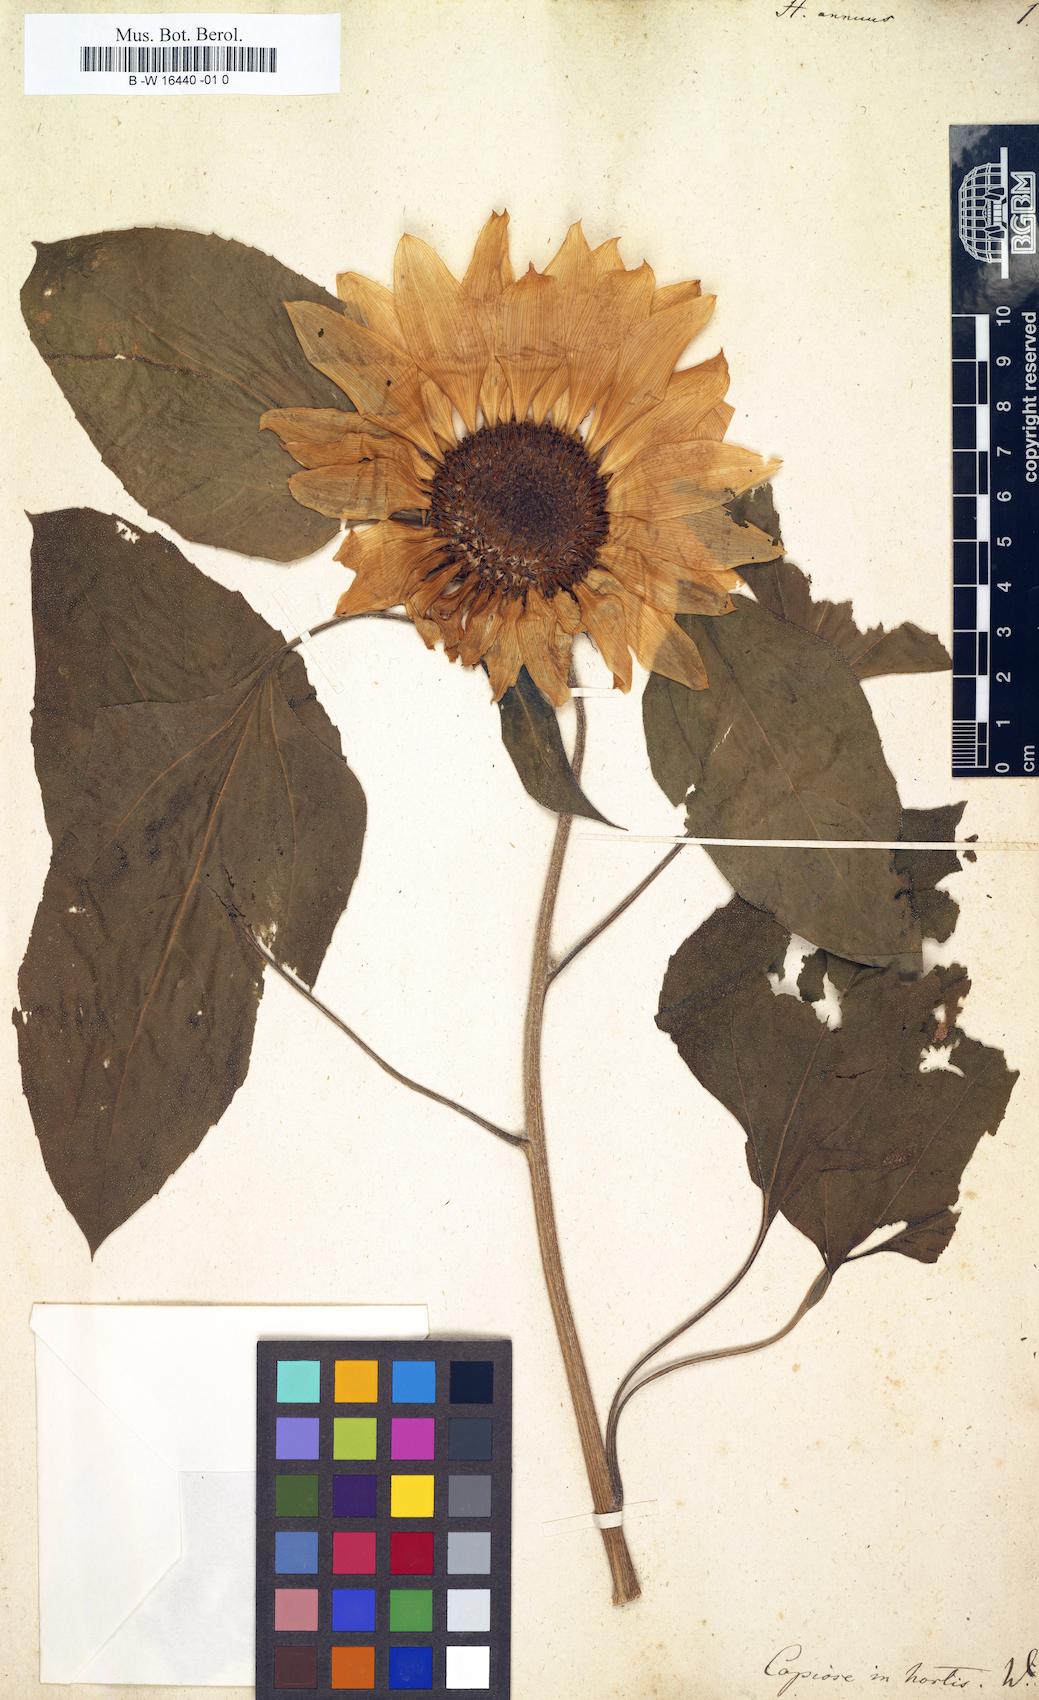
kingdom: Plantae
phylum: Tracheophyta
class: Magnoliopsida
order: Asterales
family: Asteraceae
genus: Helianthus
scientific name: Helianthus annuus
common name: Sunflower
